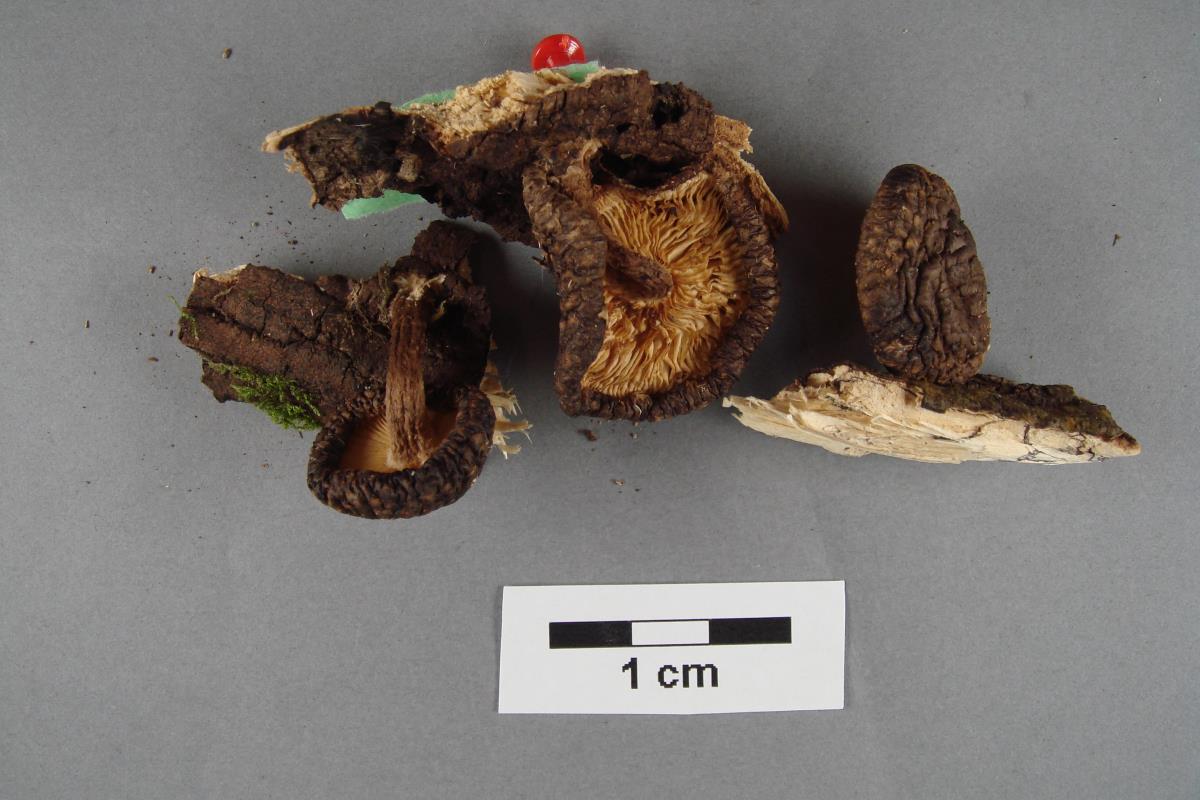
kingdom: Fungi
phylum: Basidiomycota
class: Agaricomycetes
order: Agaricales
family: Omphalotaceae
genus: Lentinula
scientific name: Lentinula novae-zelandiae
